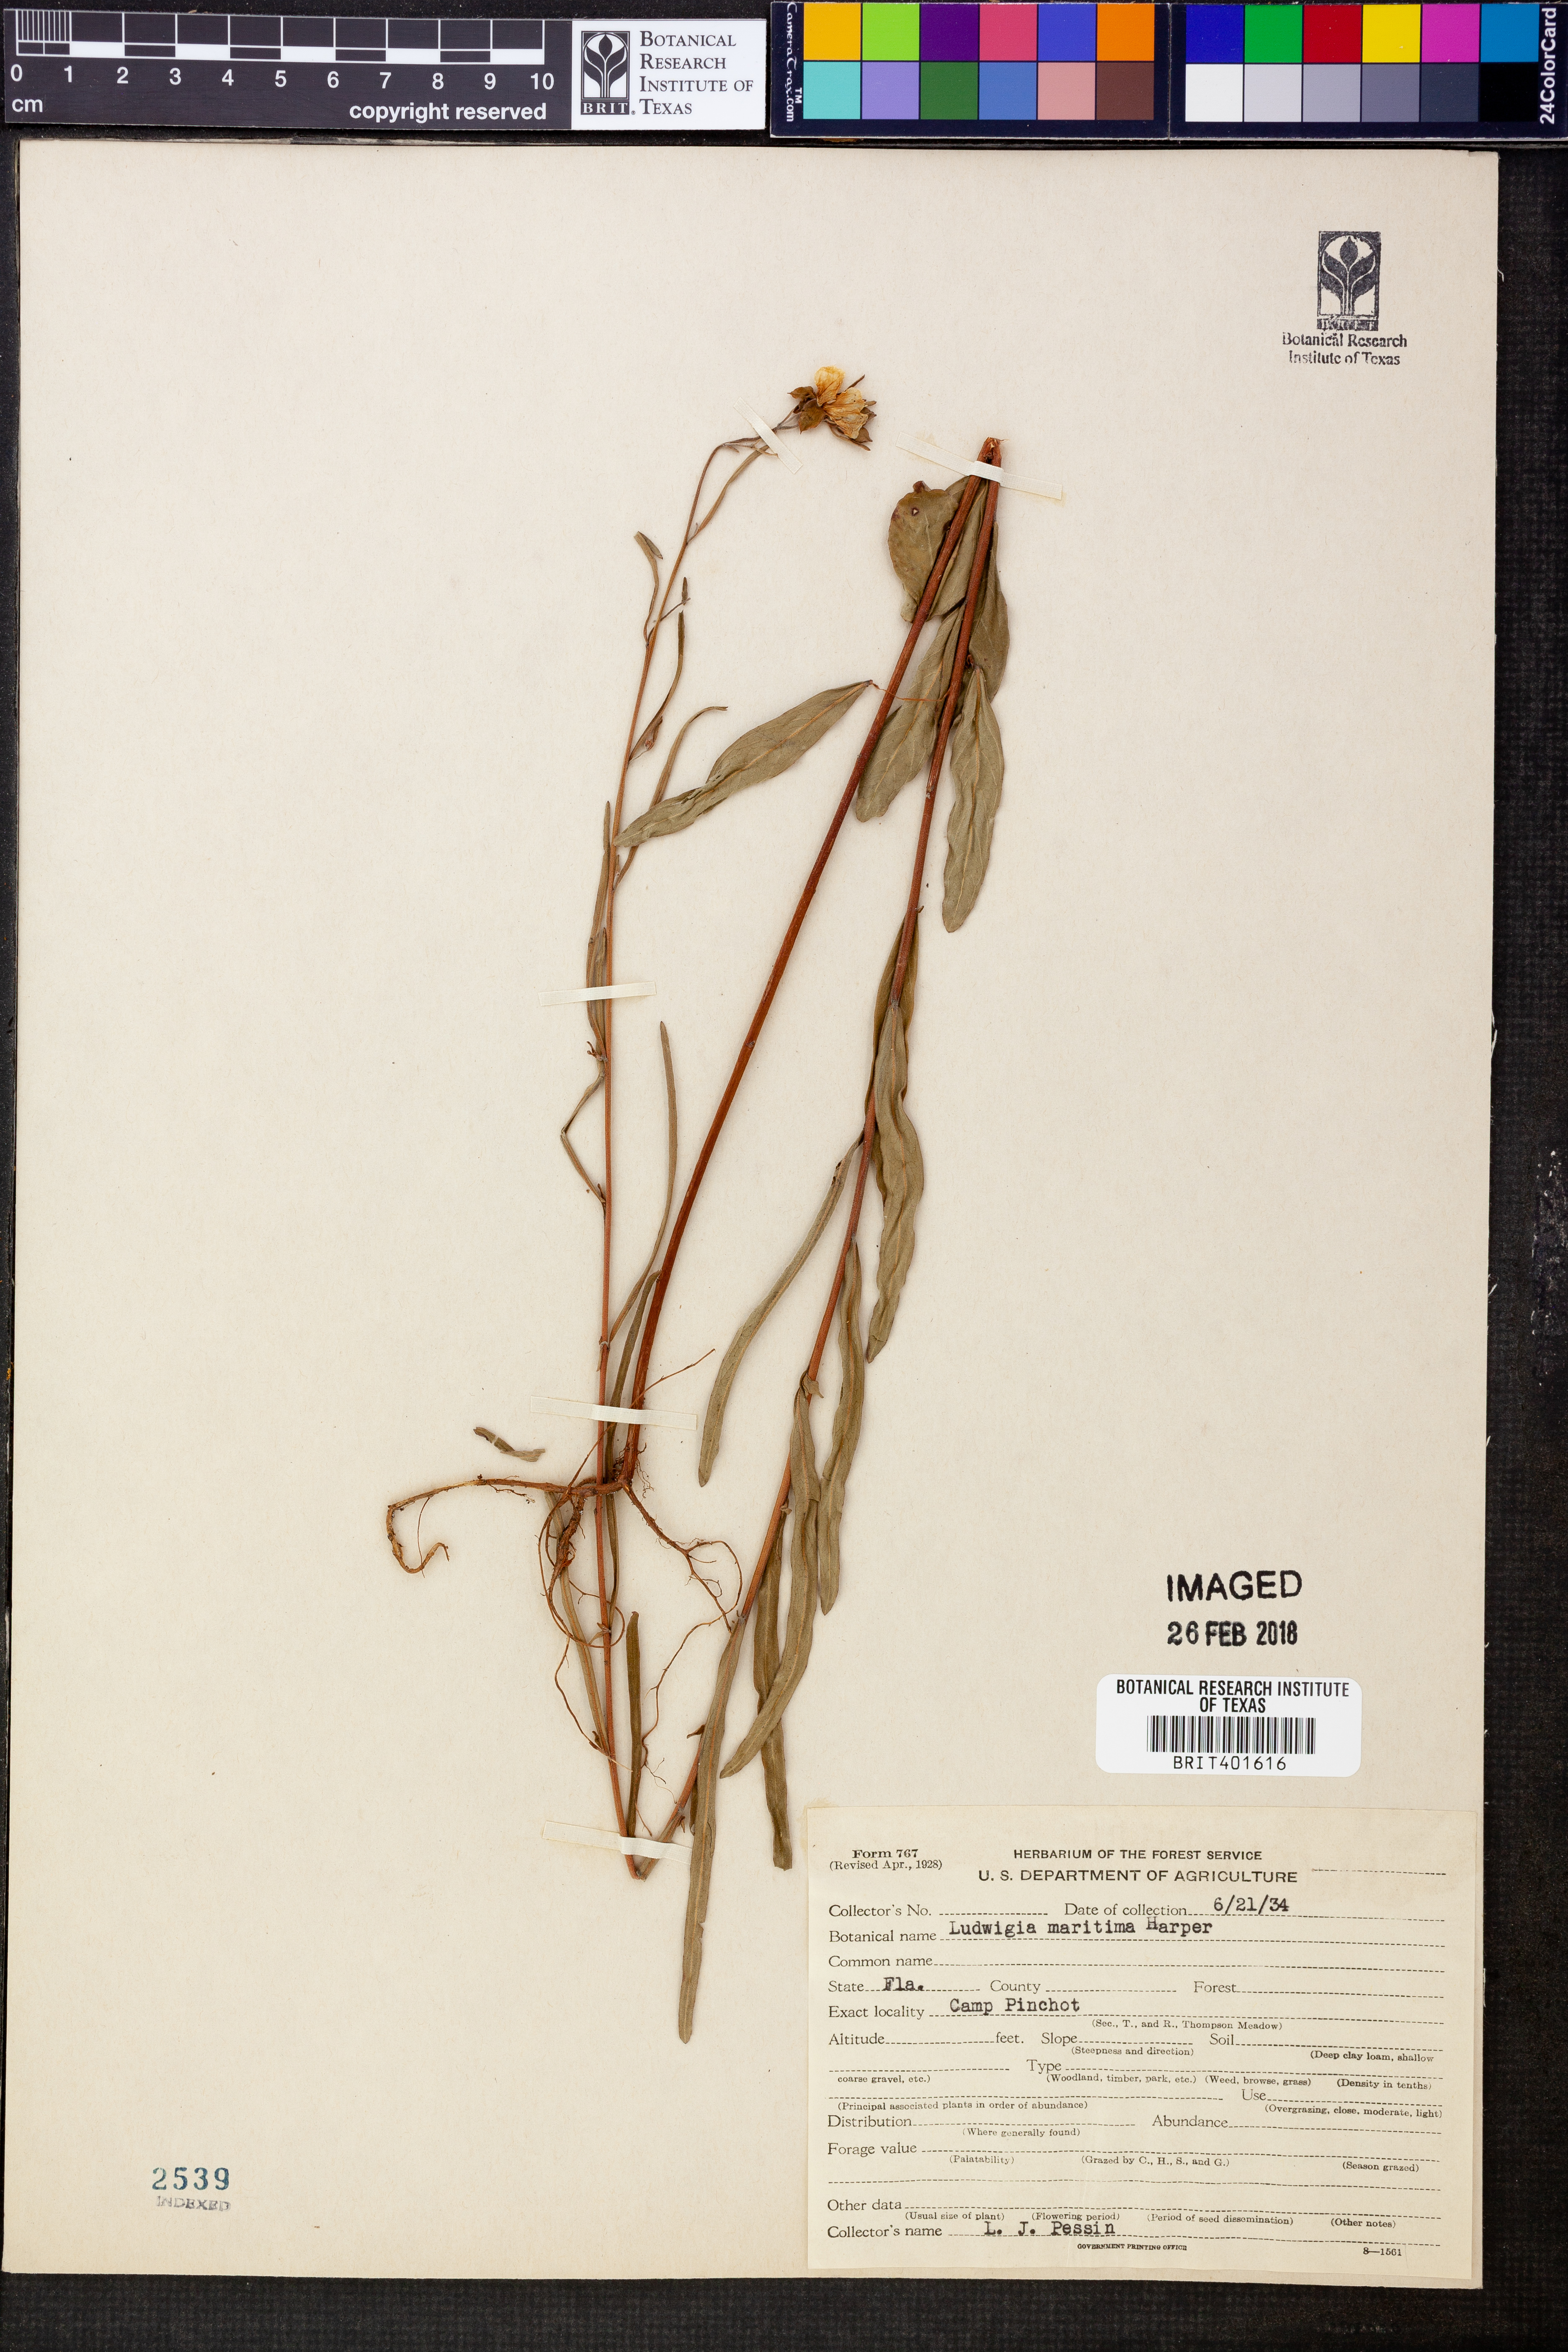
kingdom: Plantae
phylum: Tracheophyta
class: Magnoliopsida
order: Myrtales
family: Onagraceae
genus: Ludwigia
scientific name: Ludwigia maritima
